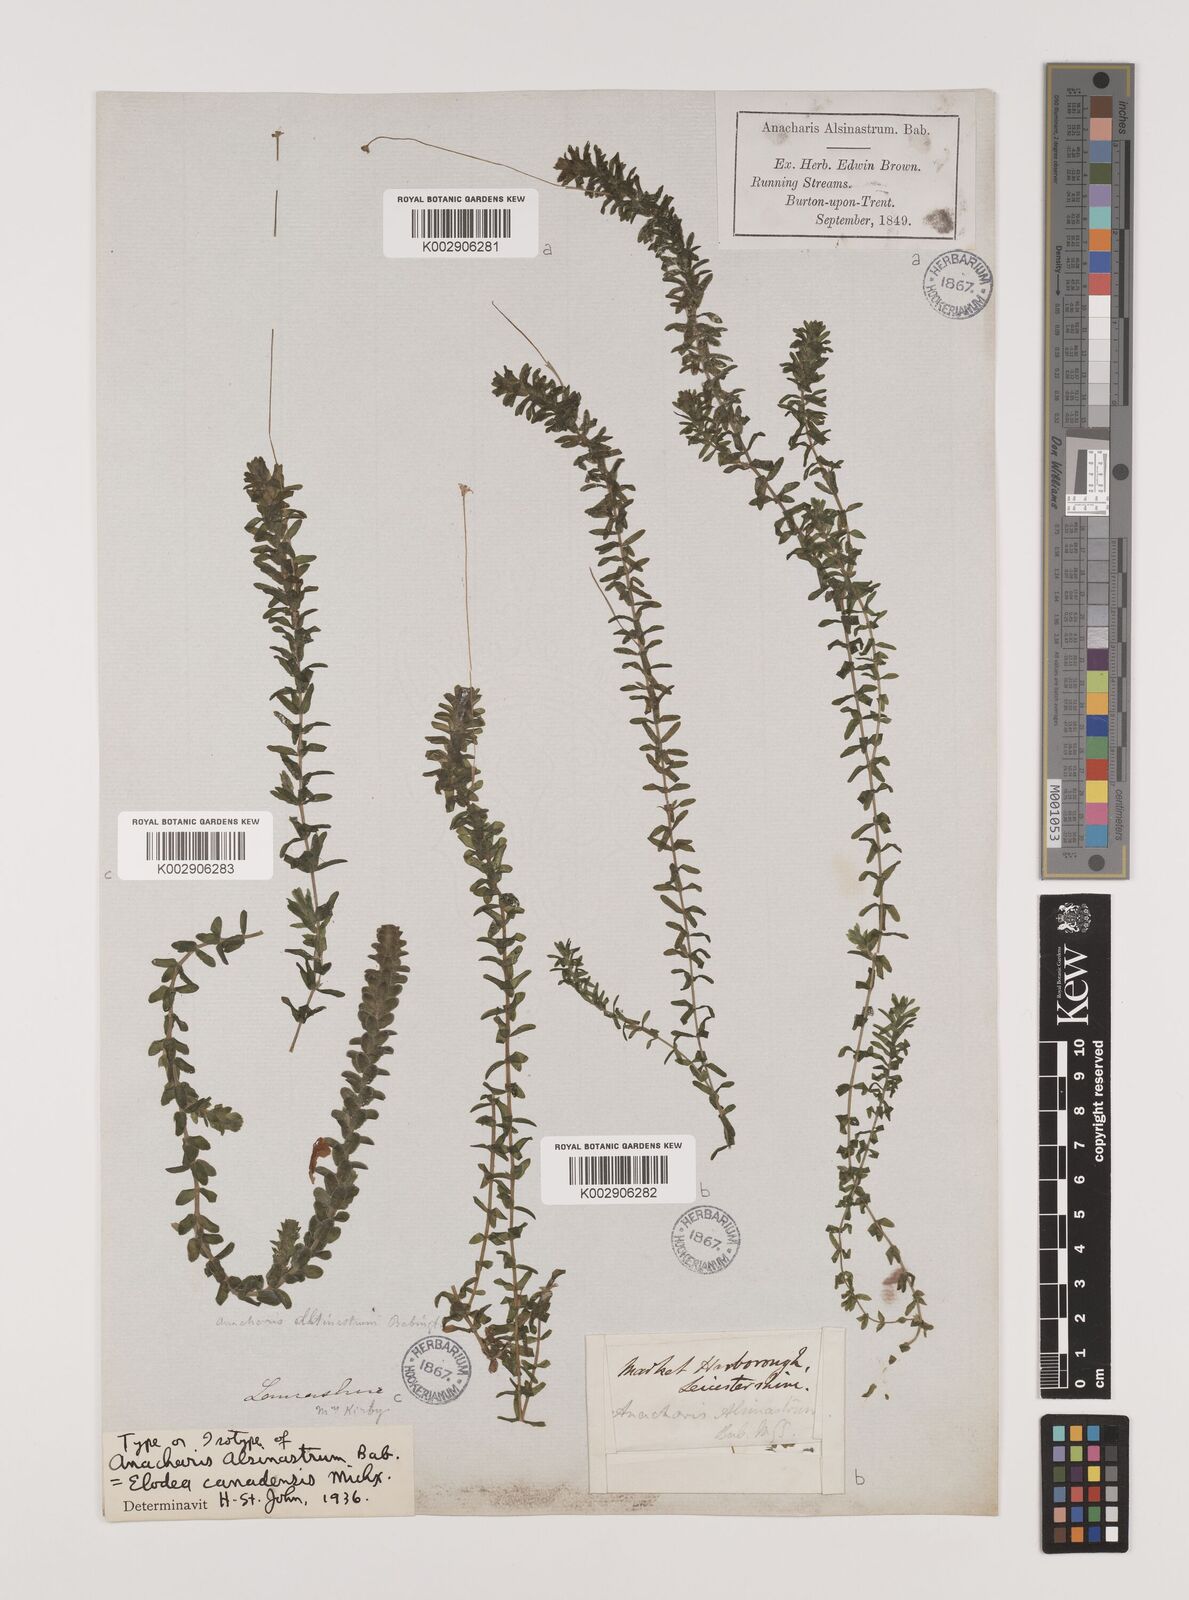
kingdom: Plantae
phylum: Tracheophyta
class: Liliopsida
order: Alismatales
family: Hydrocharitaceae
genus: Elodea
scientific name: Elodea canadensis
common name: Canadian waterweed
